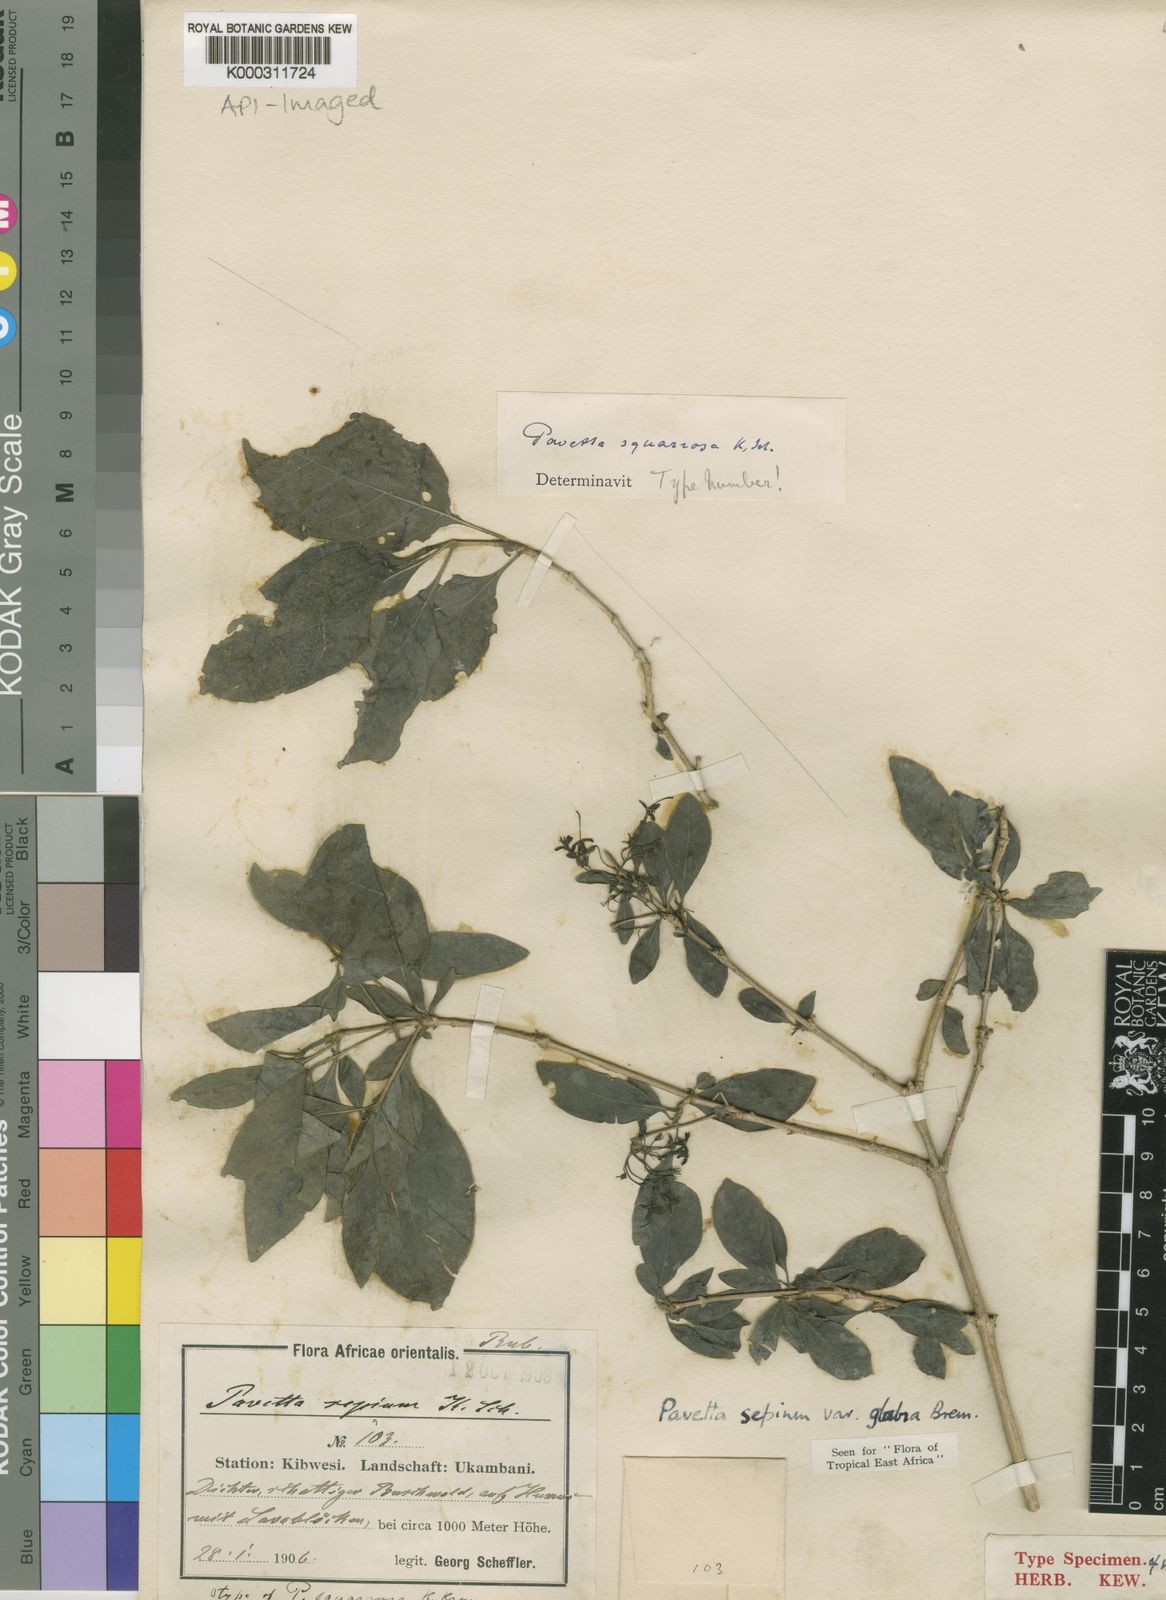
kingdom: Plantae
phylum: Tracheophyta
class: Magnoliopsida
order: Gentianales
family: Rubiaceae
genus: Pavetta
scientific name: Pavetta sepium
